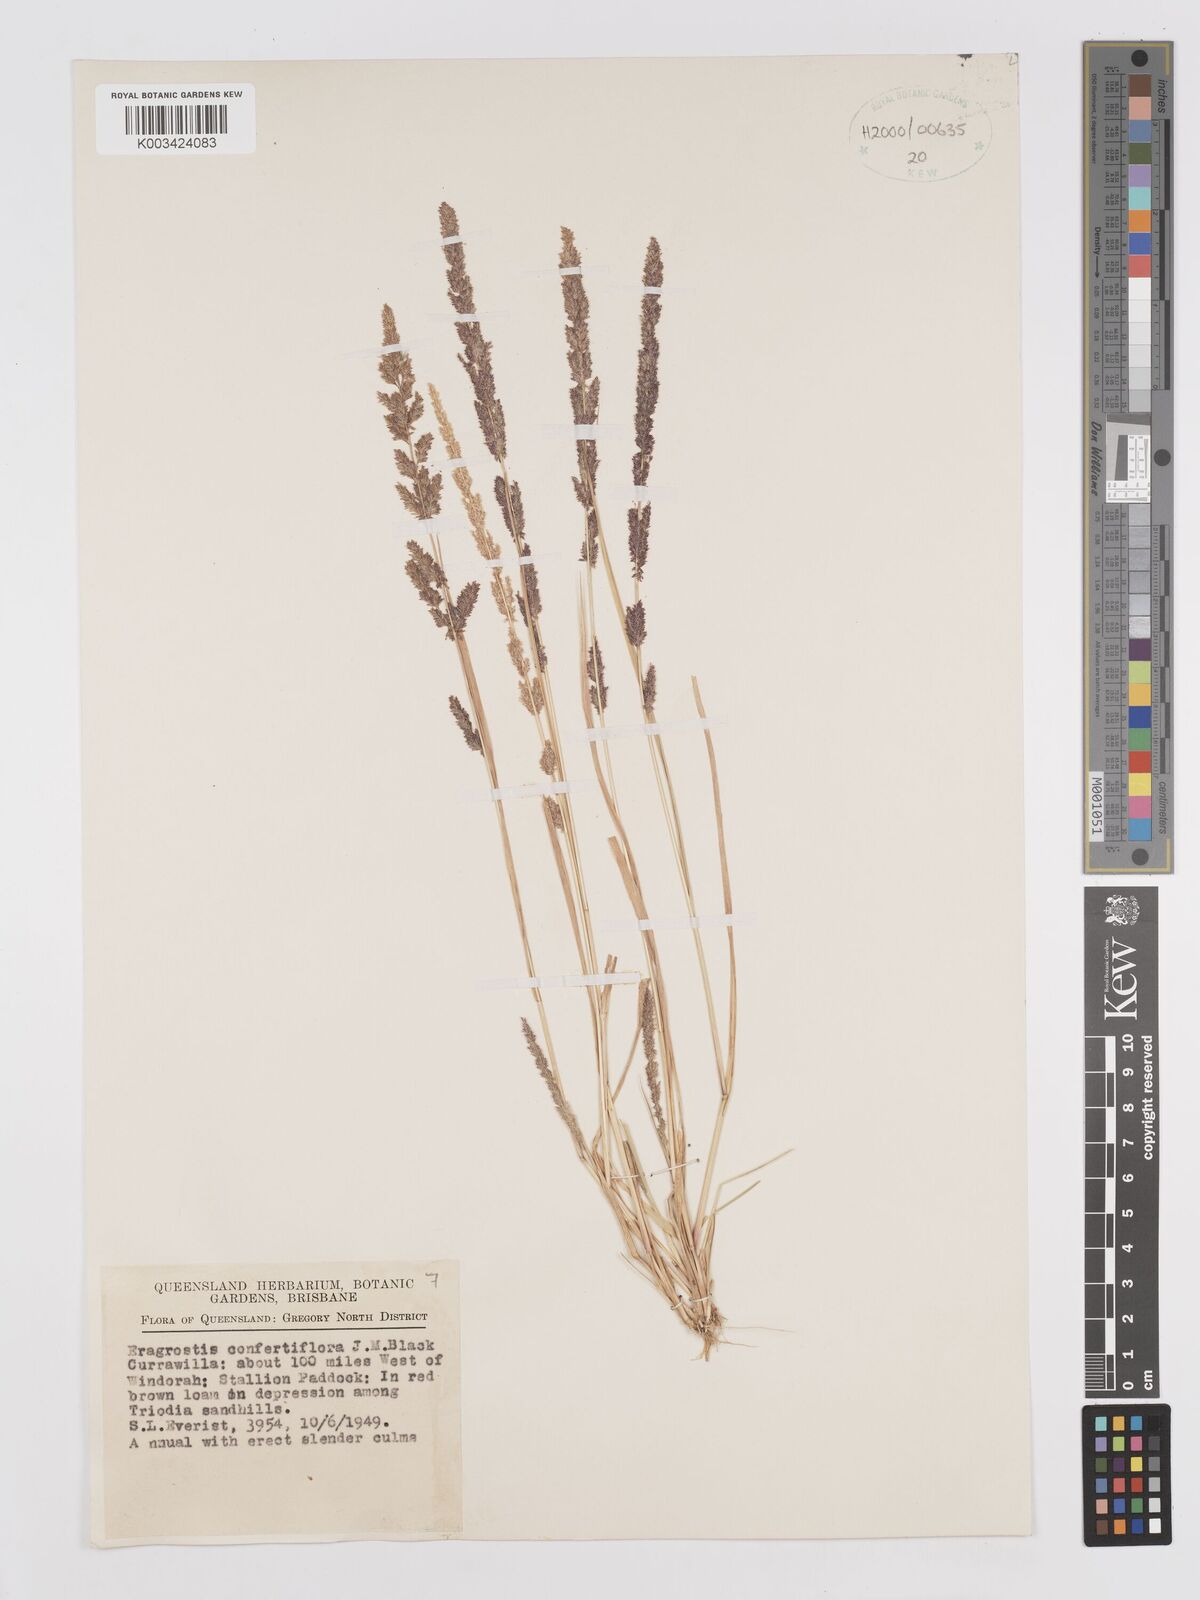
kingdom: Plantae
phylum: Tracheophyta
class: Liliopsida
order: Poales
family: Poaceae
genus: Eragrostis
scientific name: Eragrostis confertiflora
